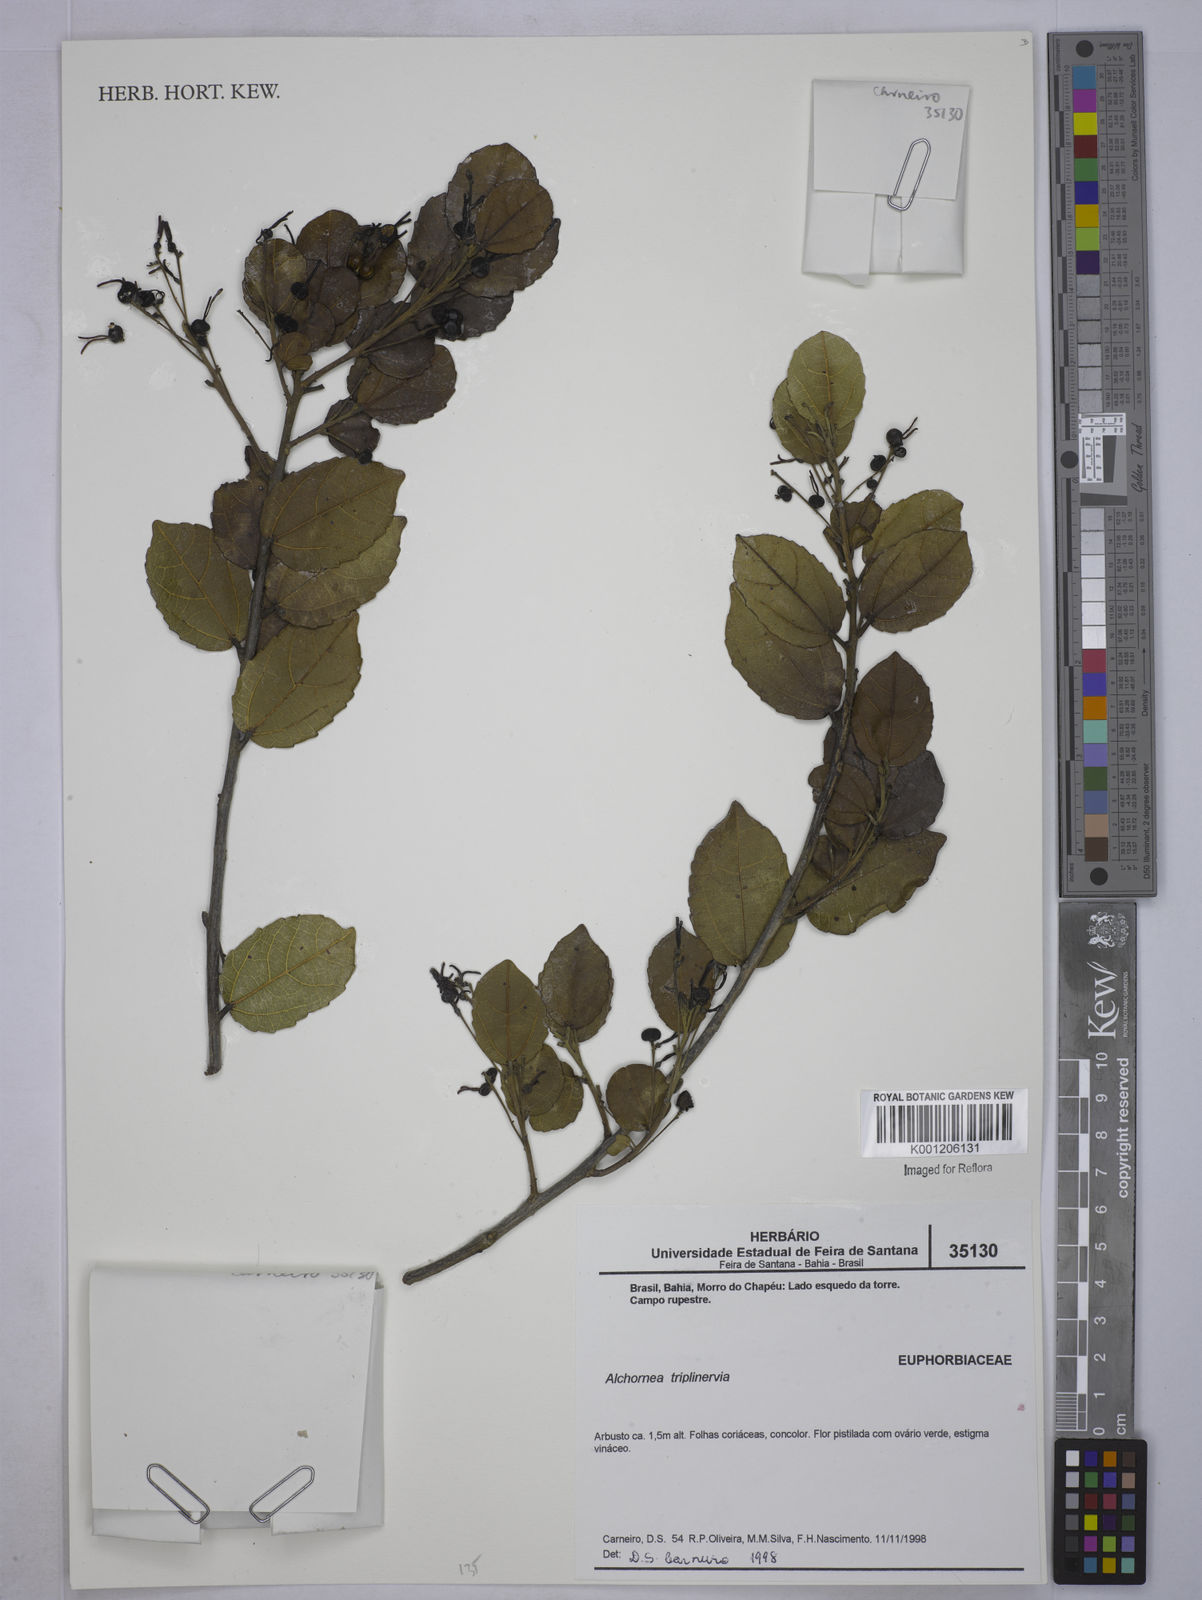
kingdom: Plantae
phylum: Tracheophyta
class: Magnoliopsida
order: Malpighiales
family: Euphorbiaceae
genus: Alchornea
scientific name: Alchornea
